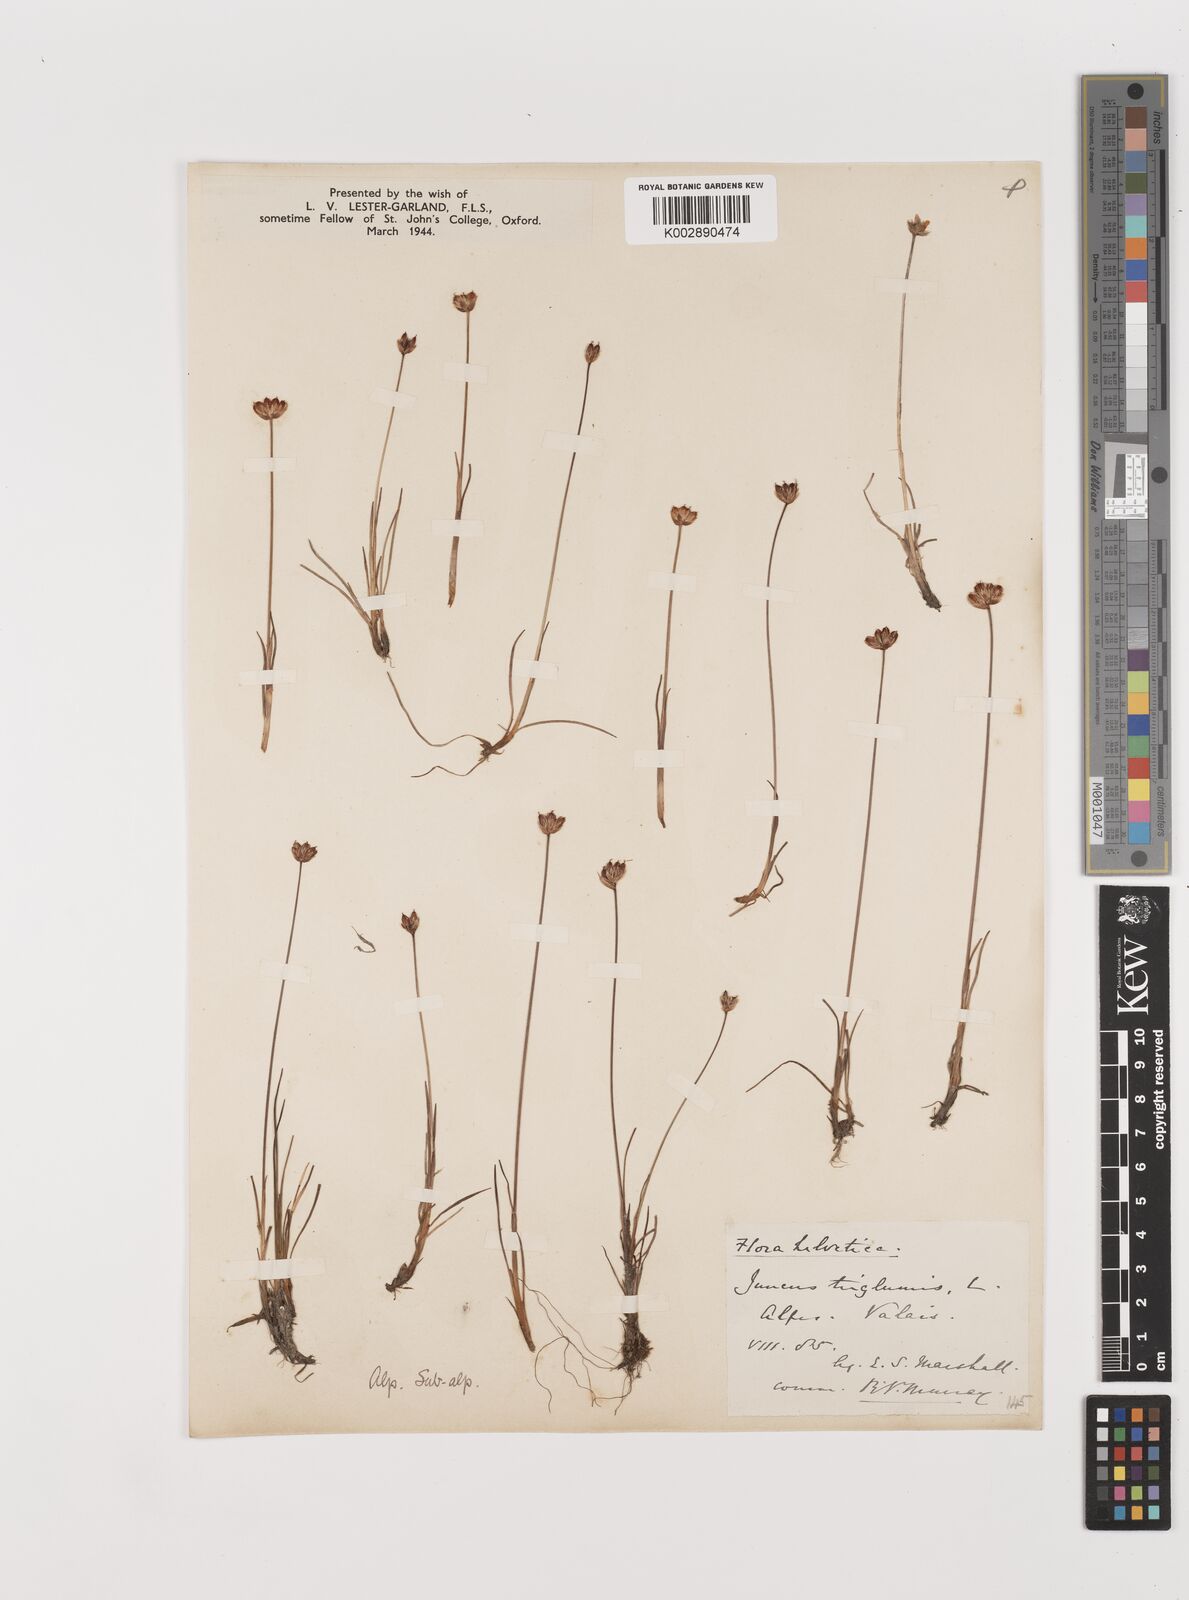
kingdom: Plantae
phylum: Tracheophyta
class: Liliopsida
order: Poales
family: Juncaceae
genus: Juncus
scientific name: Juncus triglumis
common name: Three-flowered rush
